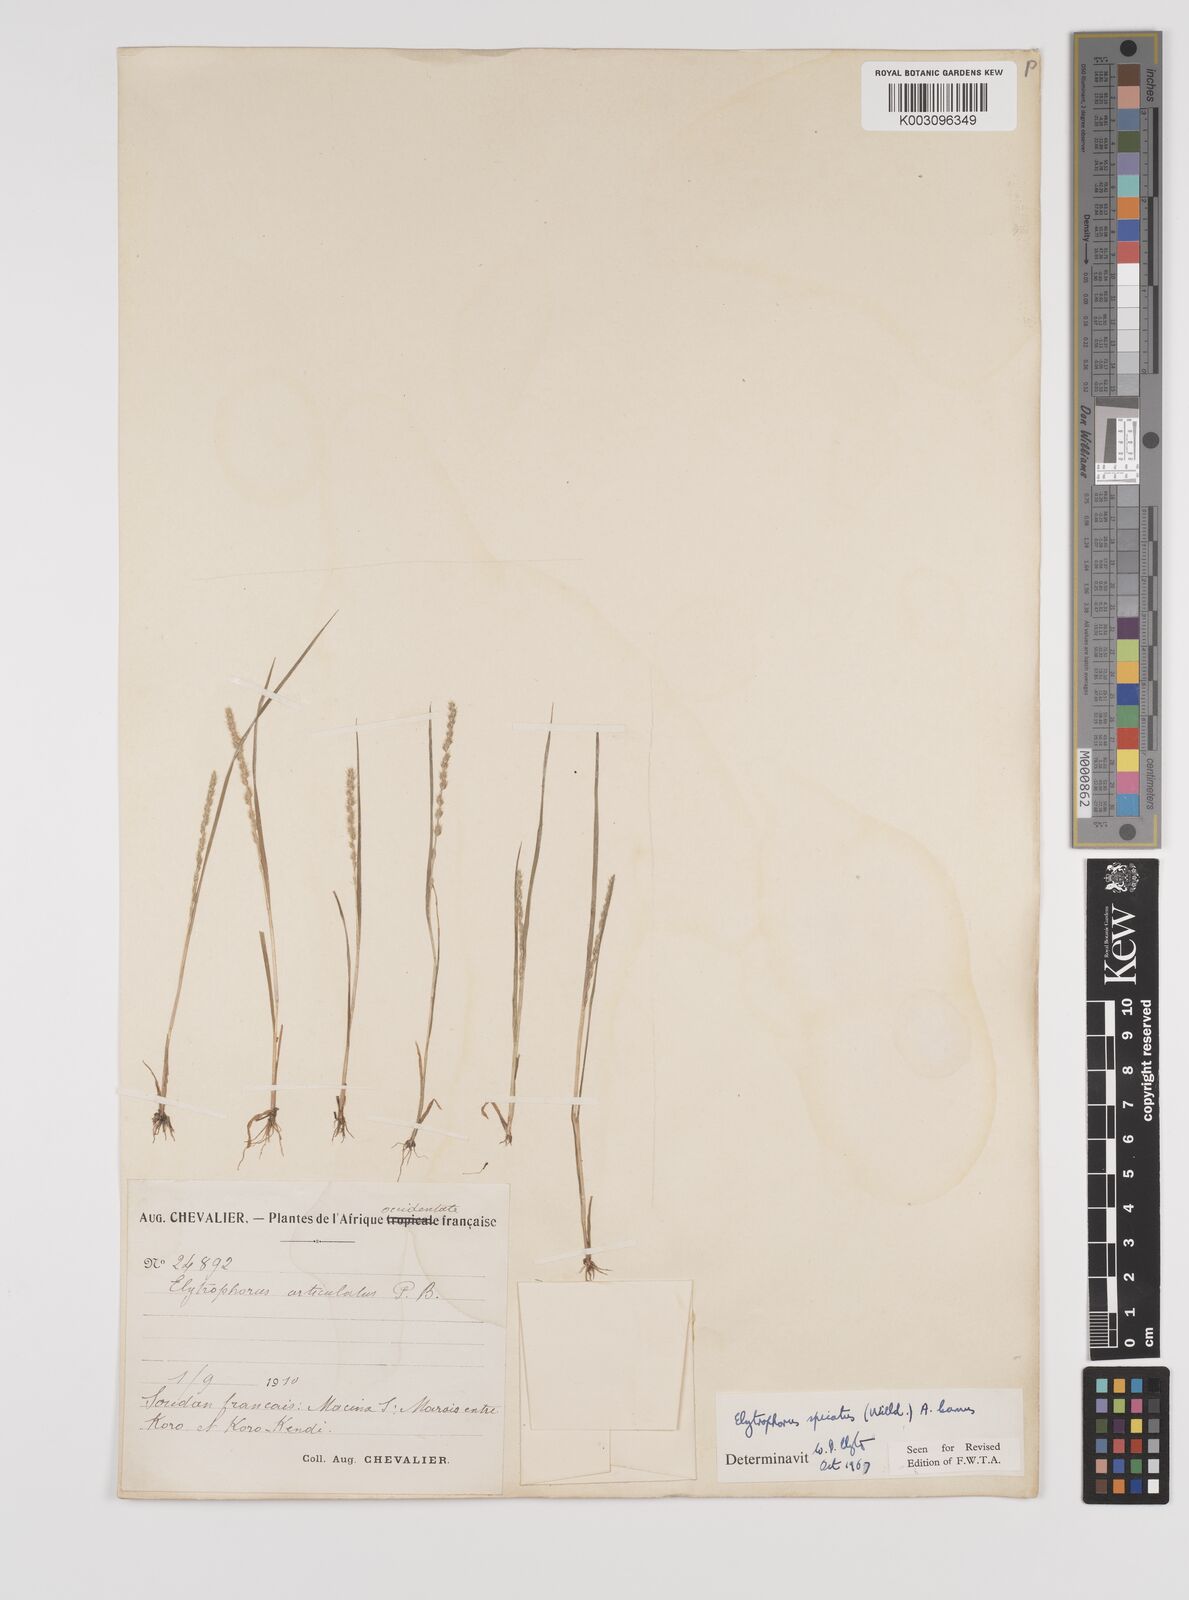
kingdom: Plantae
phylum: Tracheophyta
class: Liliopsida
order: Poales
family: Poaceae
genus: Elytrophorus
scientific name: Elytrophorus spicatus
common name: Spike grass
